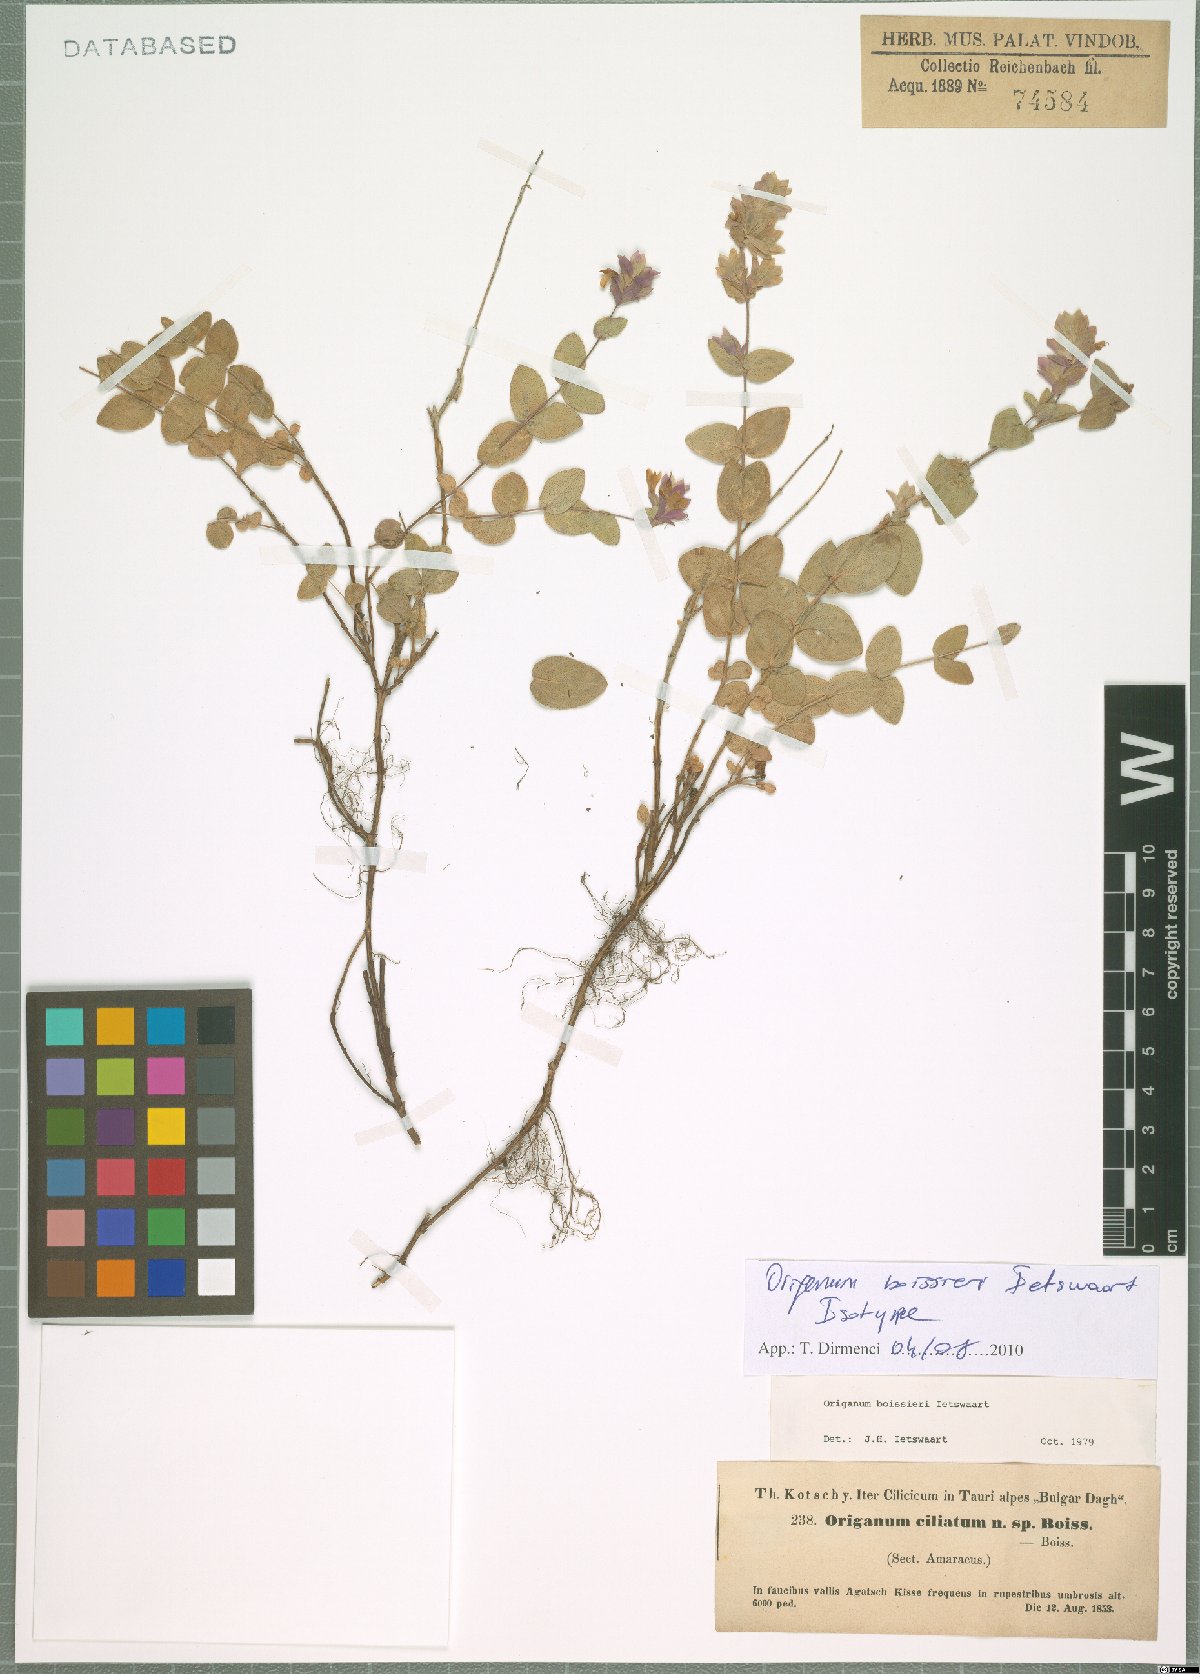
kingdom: Plantae
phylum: Tracheophyta
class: Magnoliopsida
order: Lamiales
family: Lamiaceae
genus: Origanum
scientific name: Origanum boissieri
